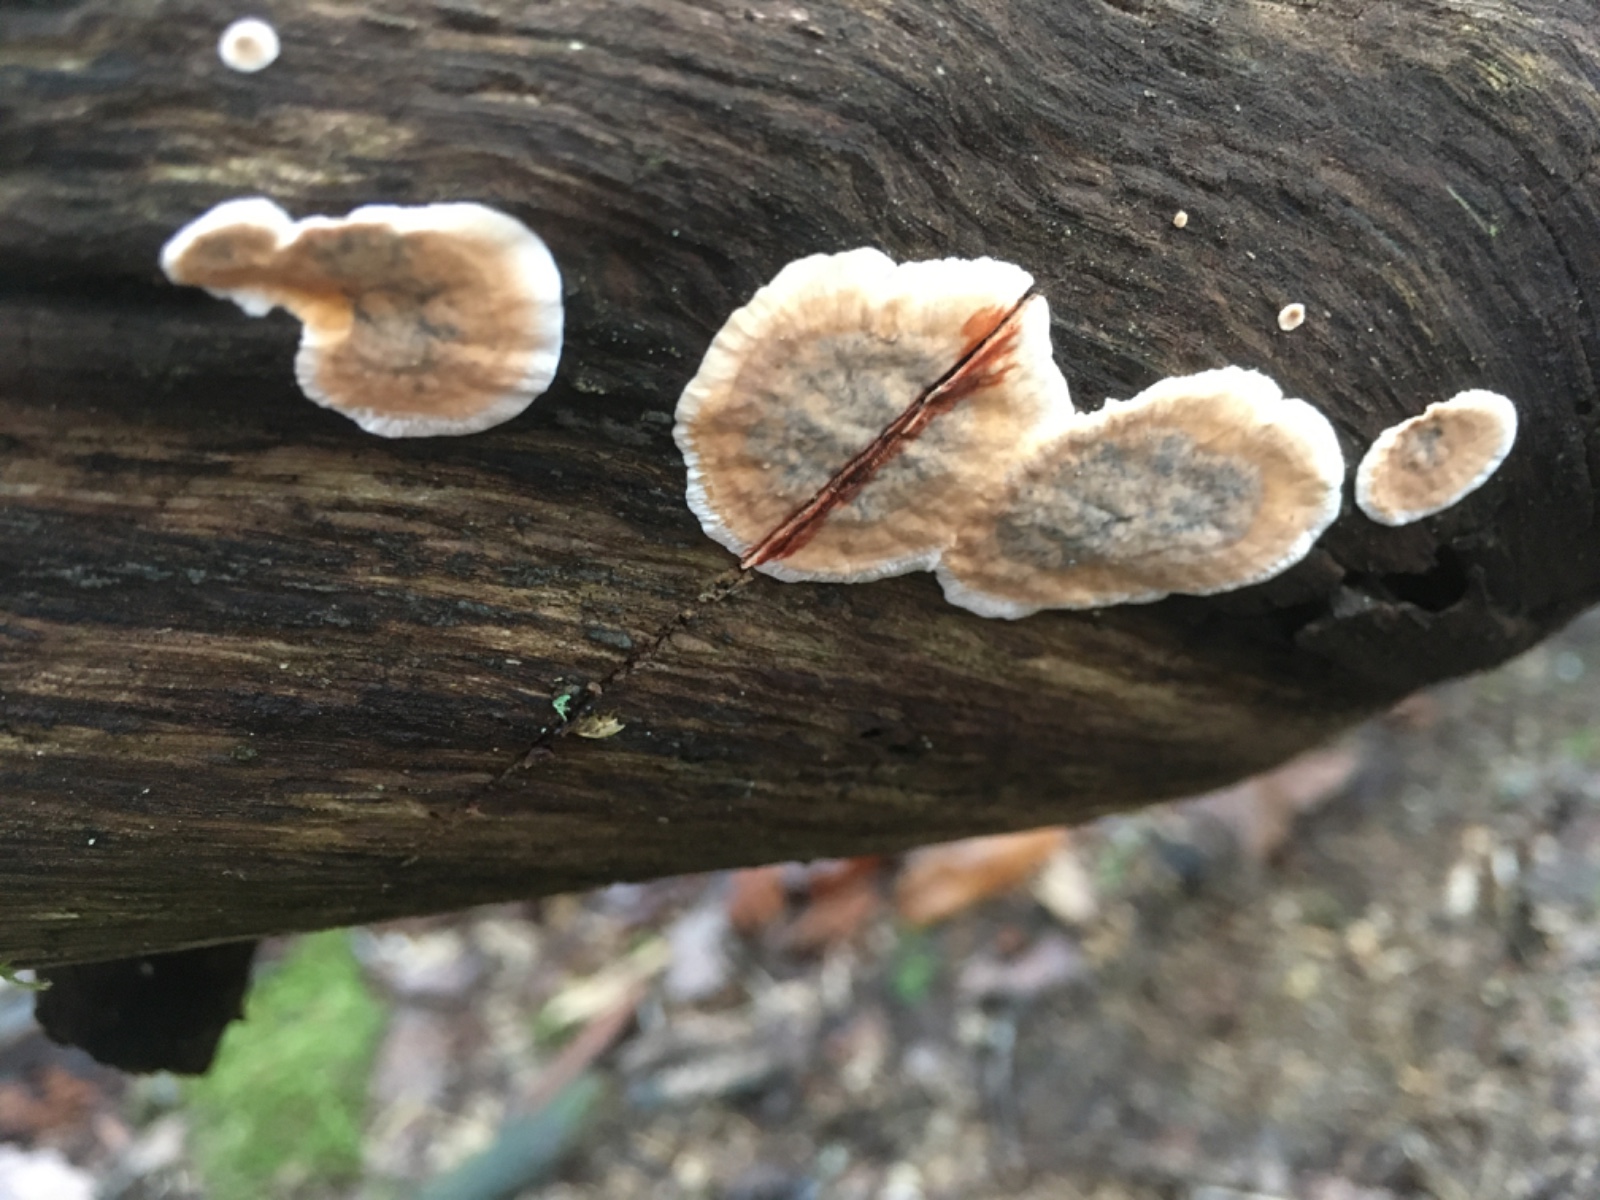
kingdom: Fungi
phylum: Basidiomycota
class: Agaricomycetes
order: Russulales
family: Stereaceae
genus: Stereum
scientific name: Stereum gausapatum
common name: tynd lædersvamp
